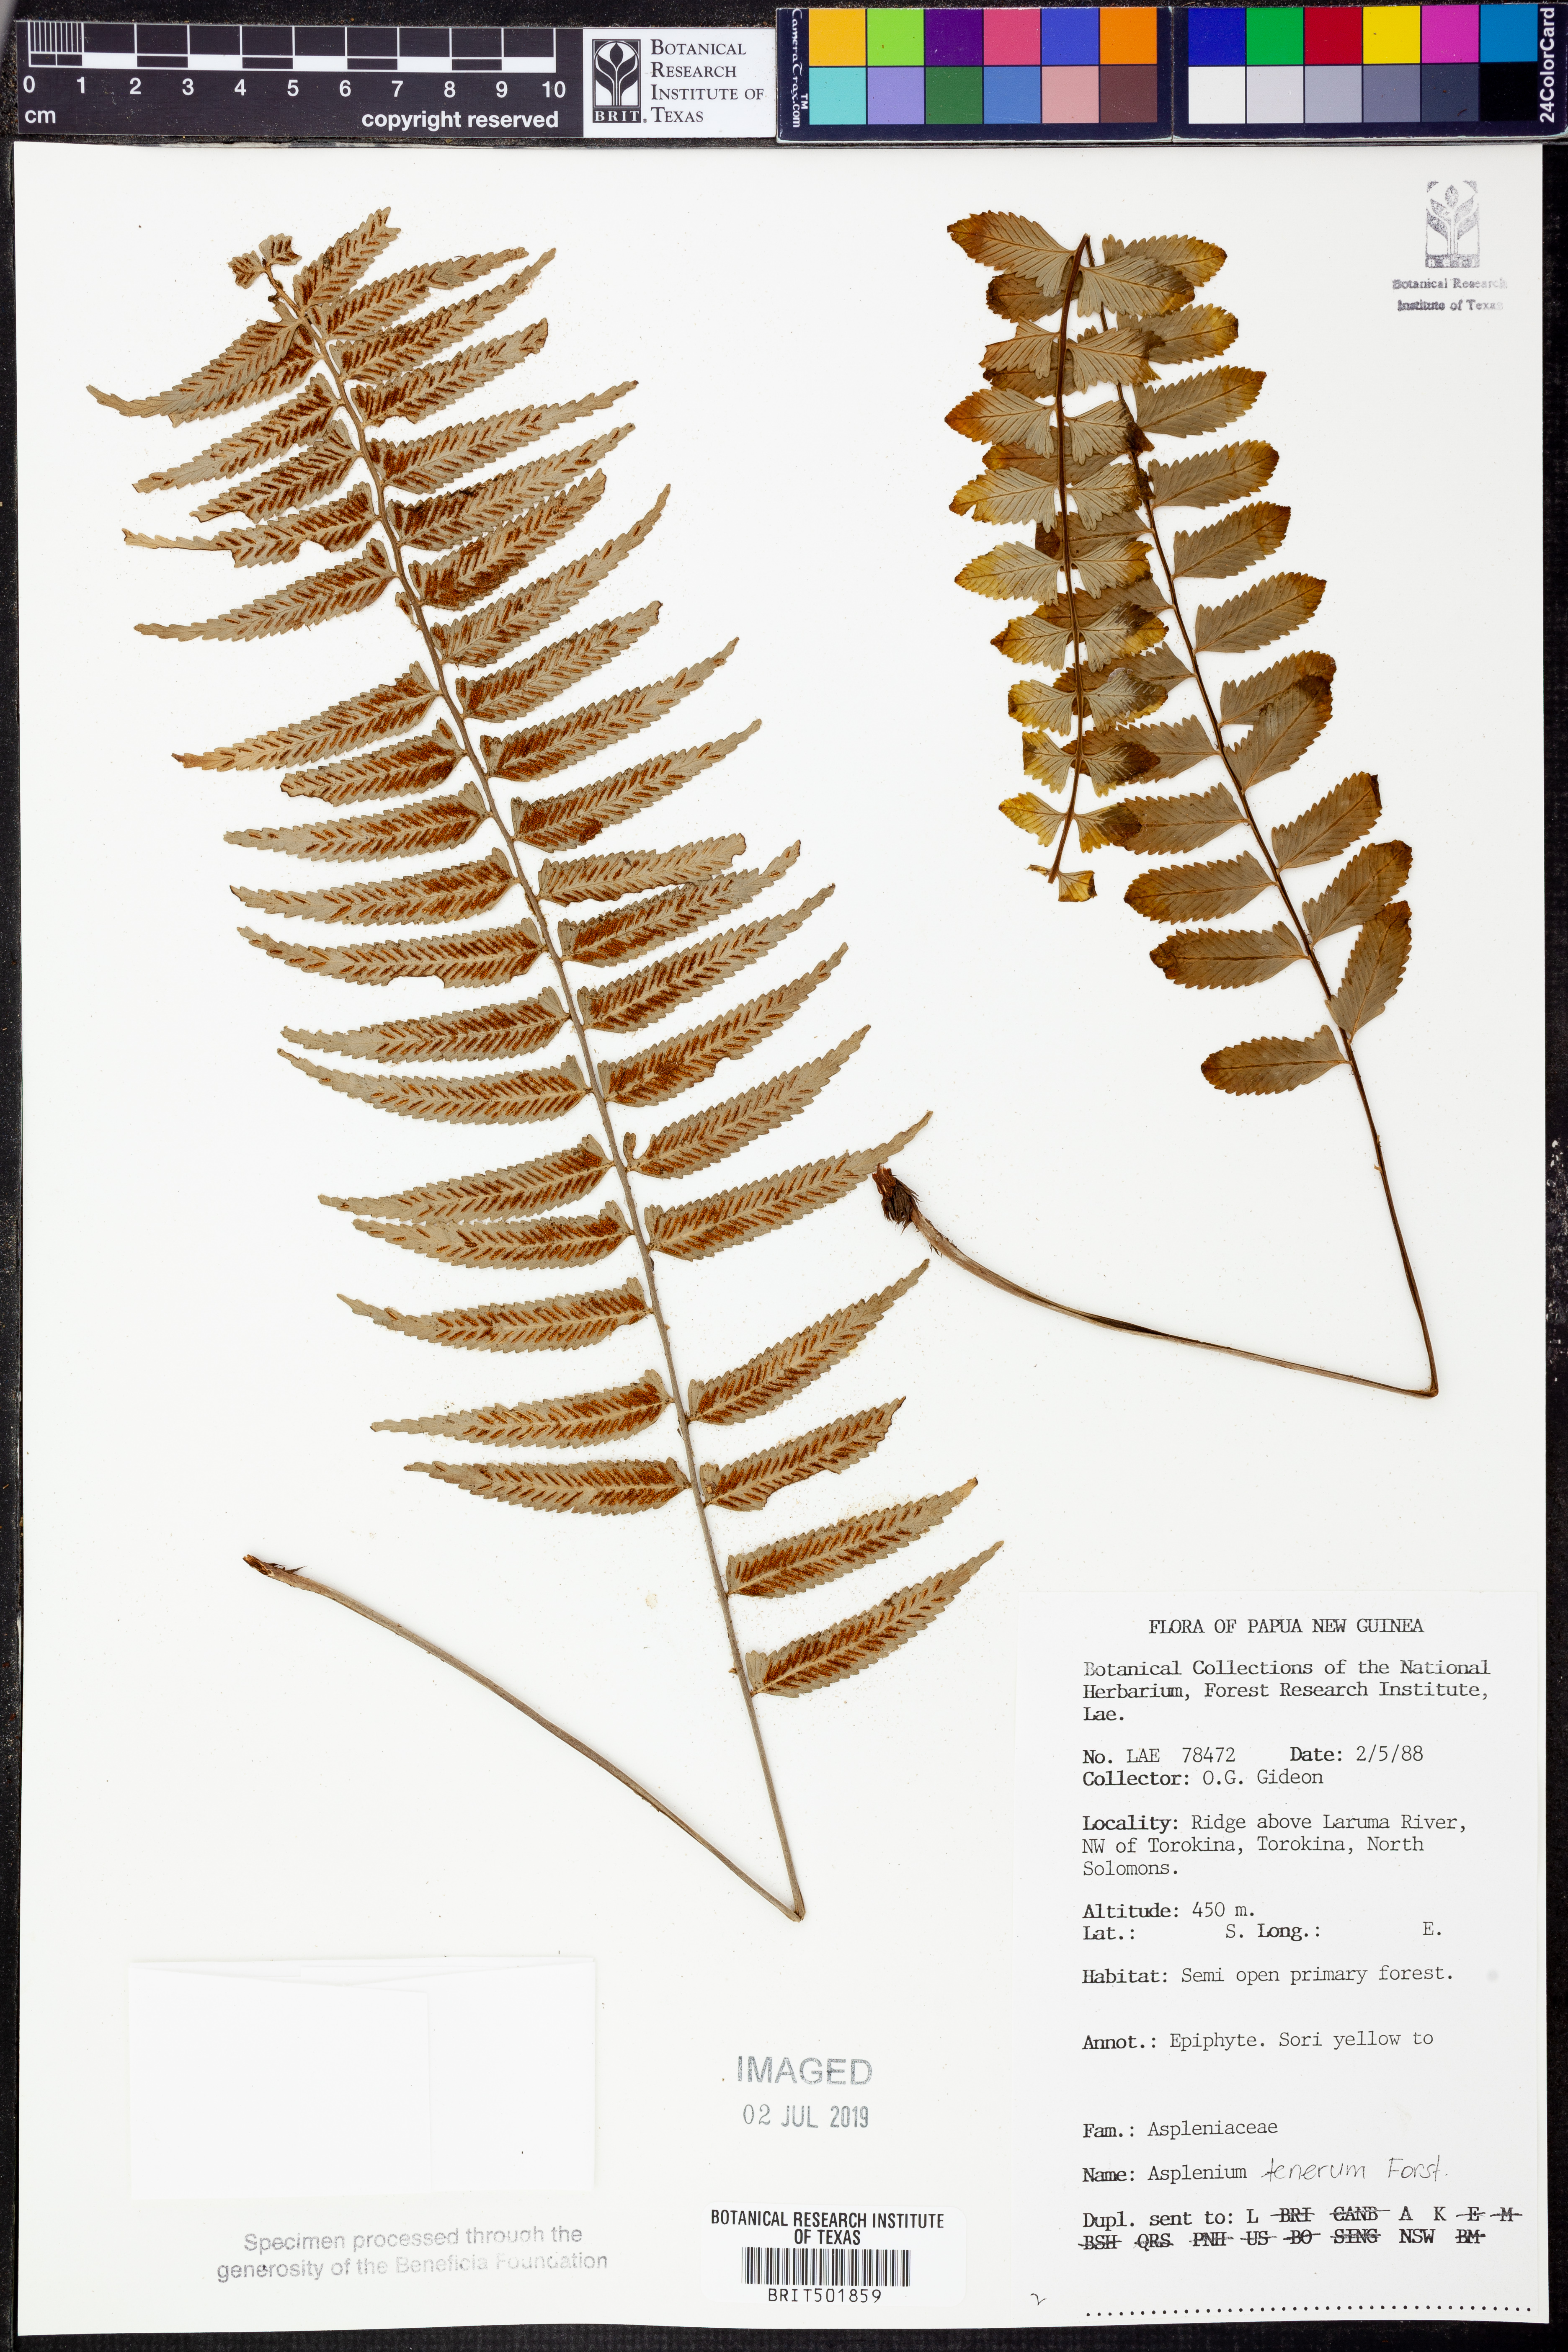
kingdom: Plantae
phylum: Tracheophyta
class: Polypodiopsida
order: Polypodiales
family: Aspleniaceae
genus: Asplenium
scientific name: Asplenium auriculatum
